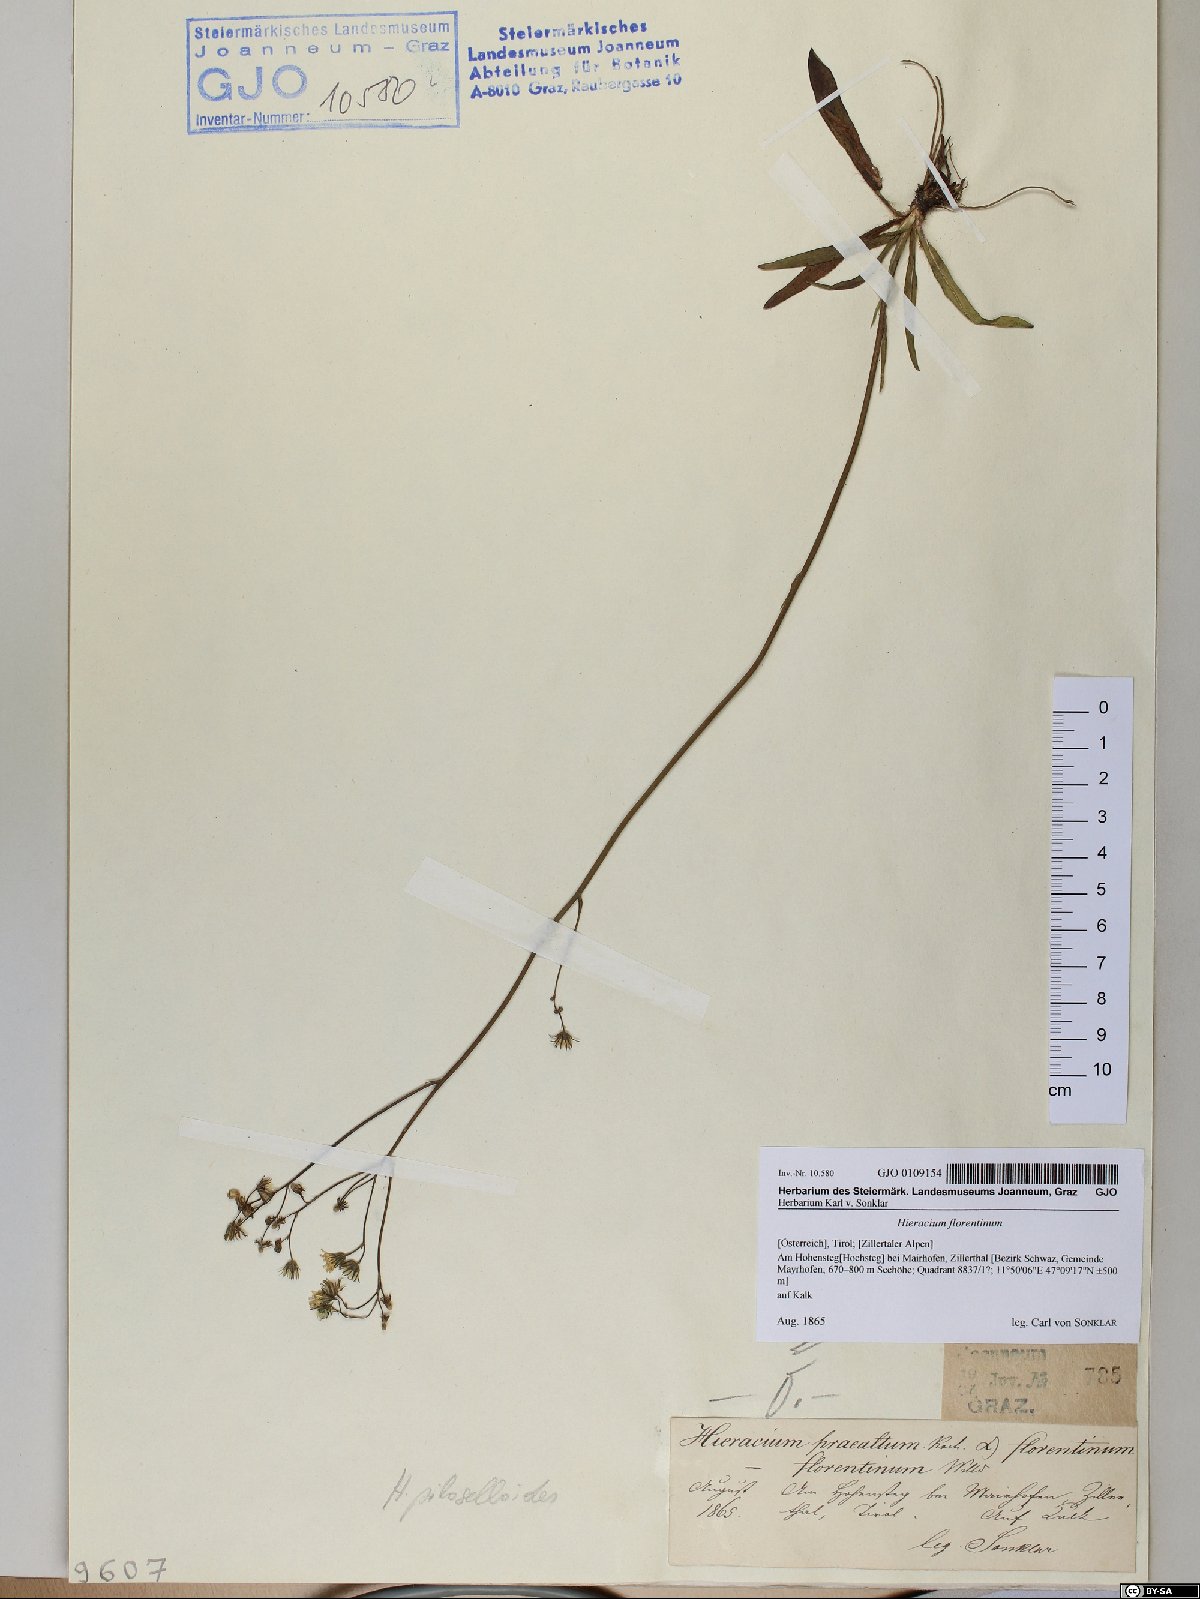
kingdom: Plantae
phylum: Tracheophyta
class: Magnoliopsida
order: Asterales
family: Asteraceae
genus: Pilosella
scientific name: Pilosella piloselloides
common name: Glaucous king-devil
